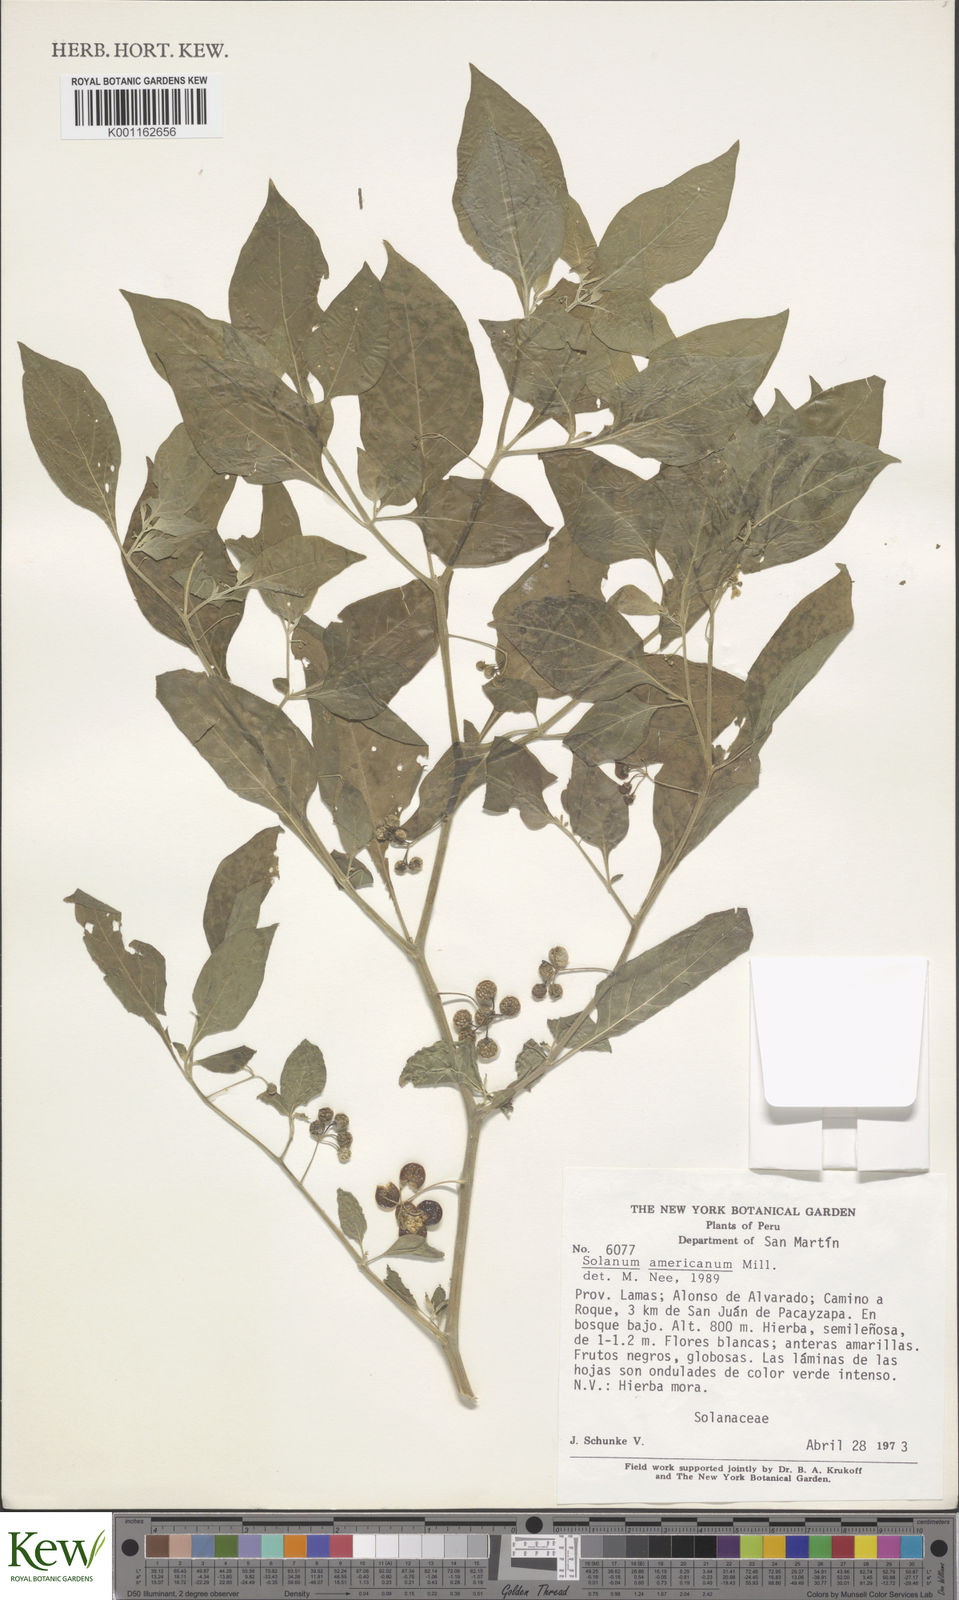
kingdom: Plantae
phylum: Tracheophyta
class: Magnoliopsida
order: Solanales
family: Solanaceae
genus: Solanum
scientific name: Solanum americanum
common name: American black nightshade
